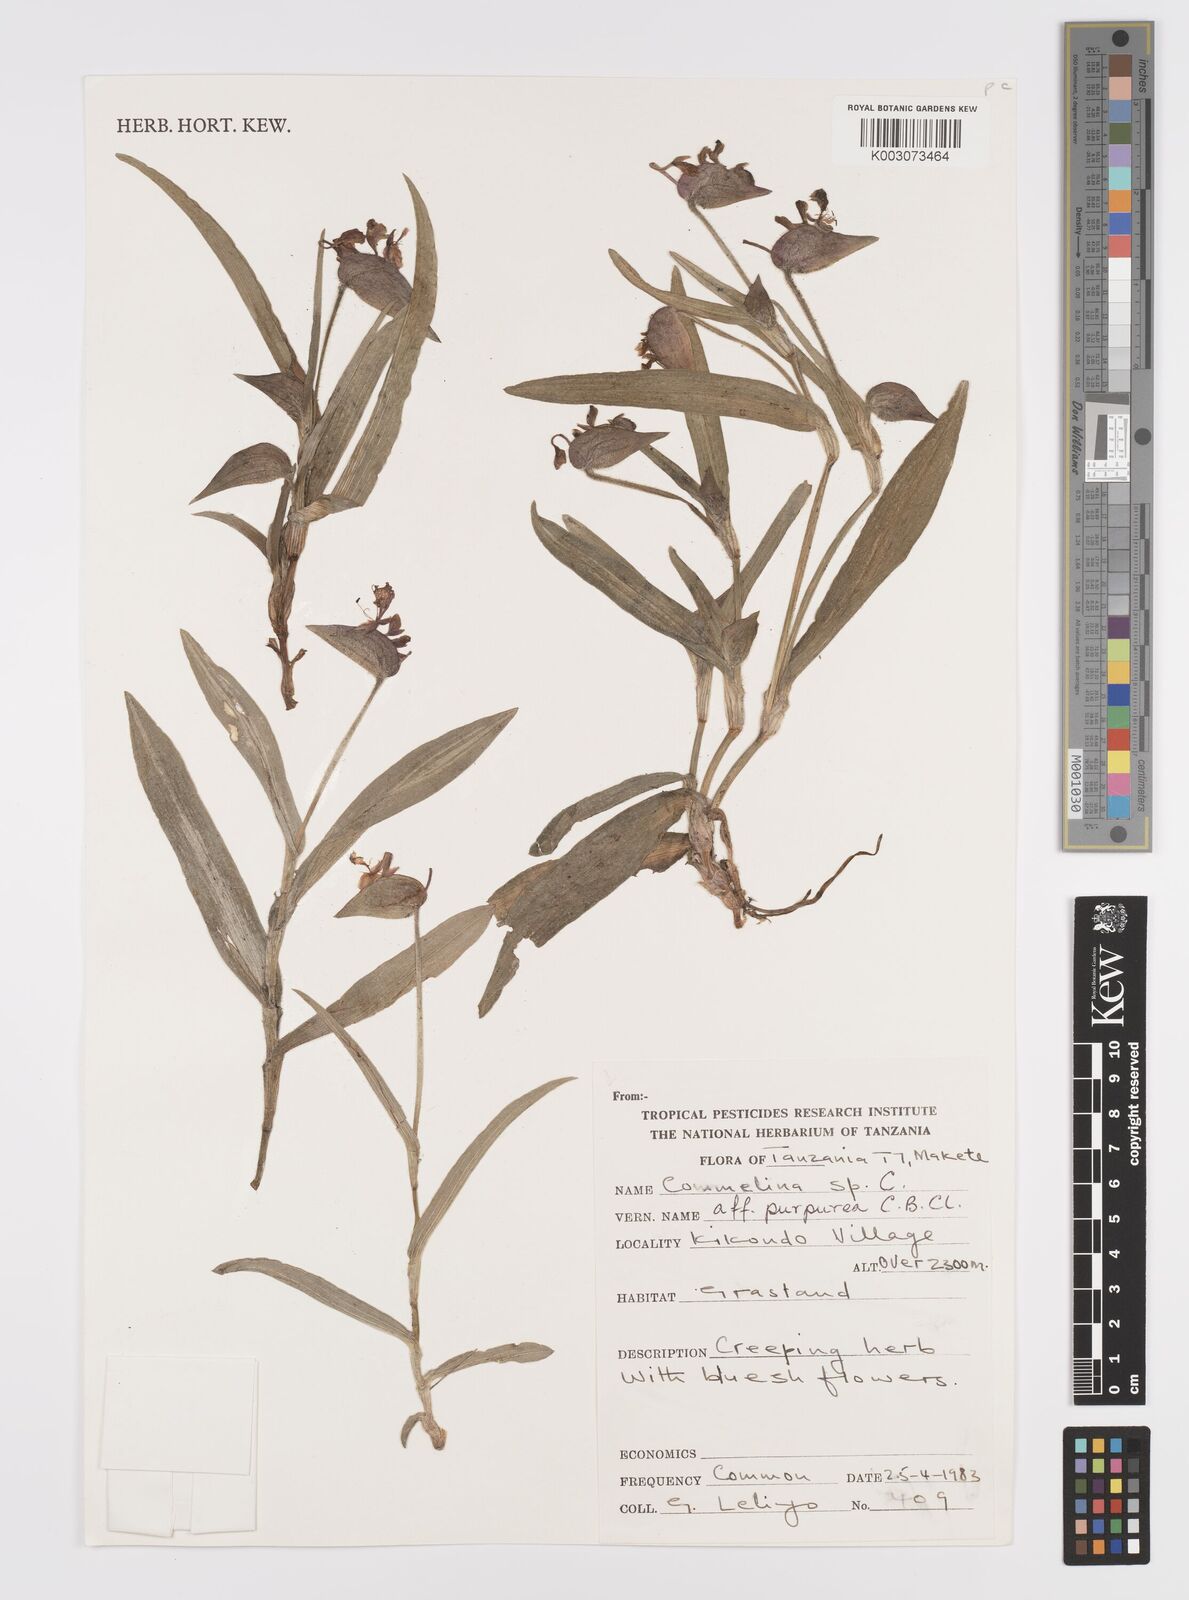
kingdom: Plantae
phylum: Tracheophyta
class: Liliopsida
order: Commelinales
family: Commelinaceae
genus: Commelina
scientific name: Commelina kituloensis
